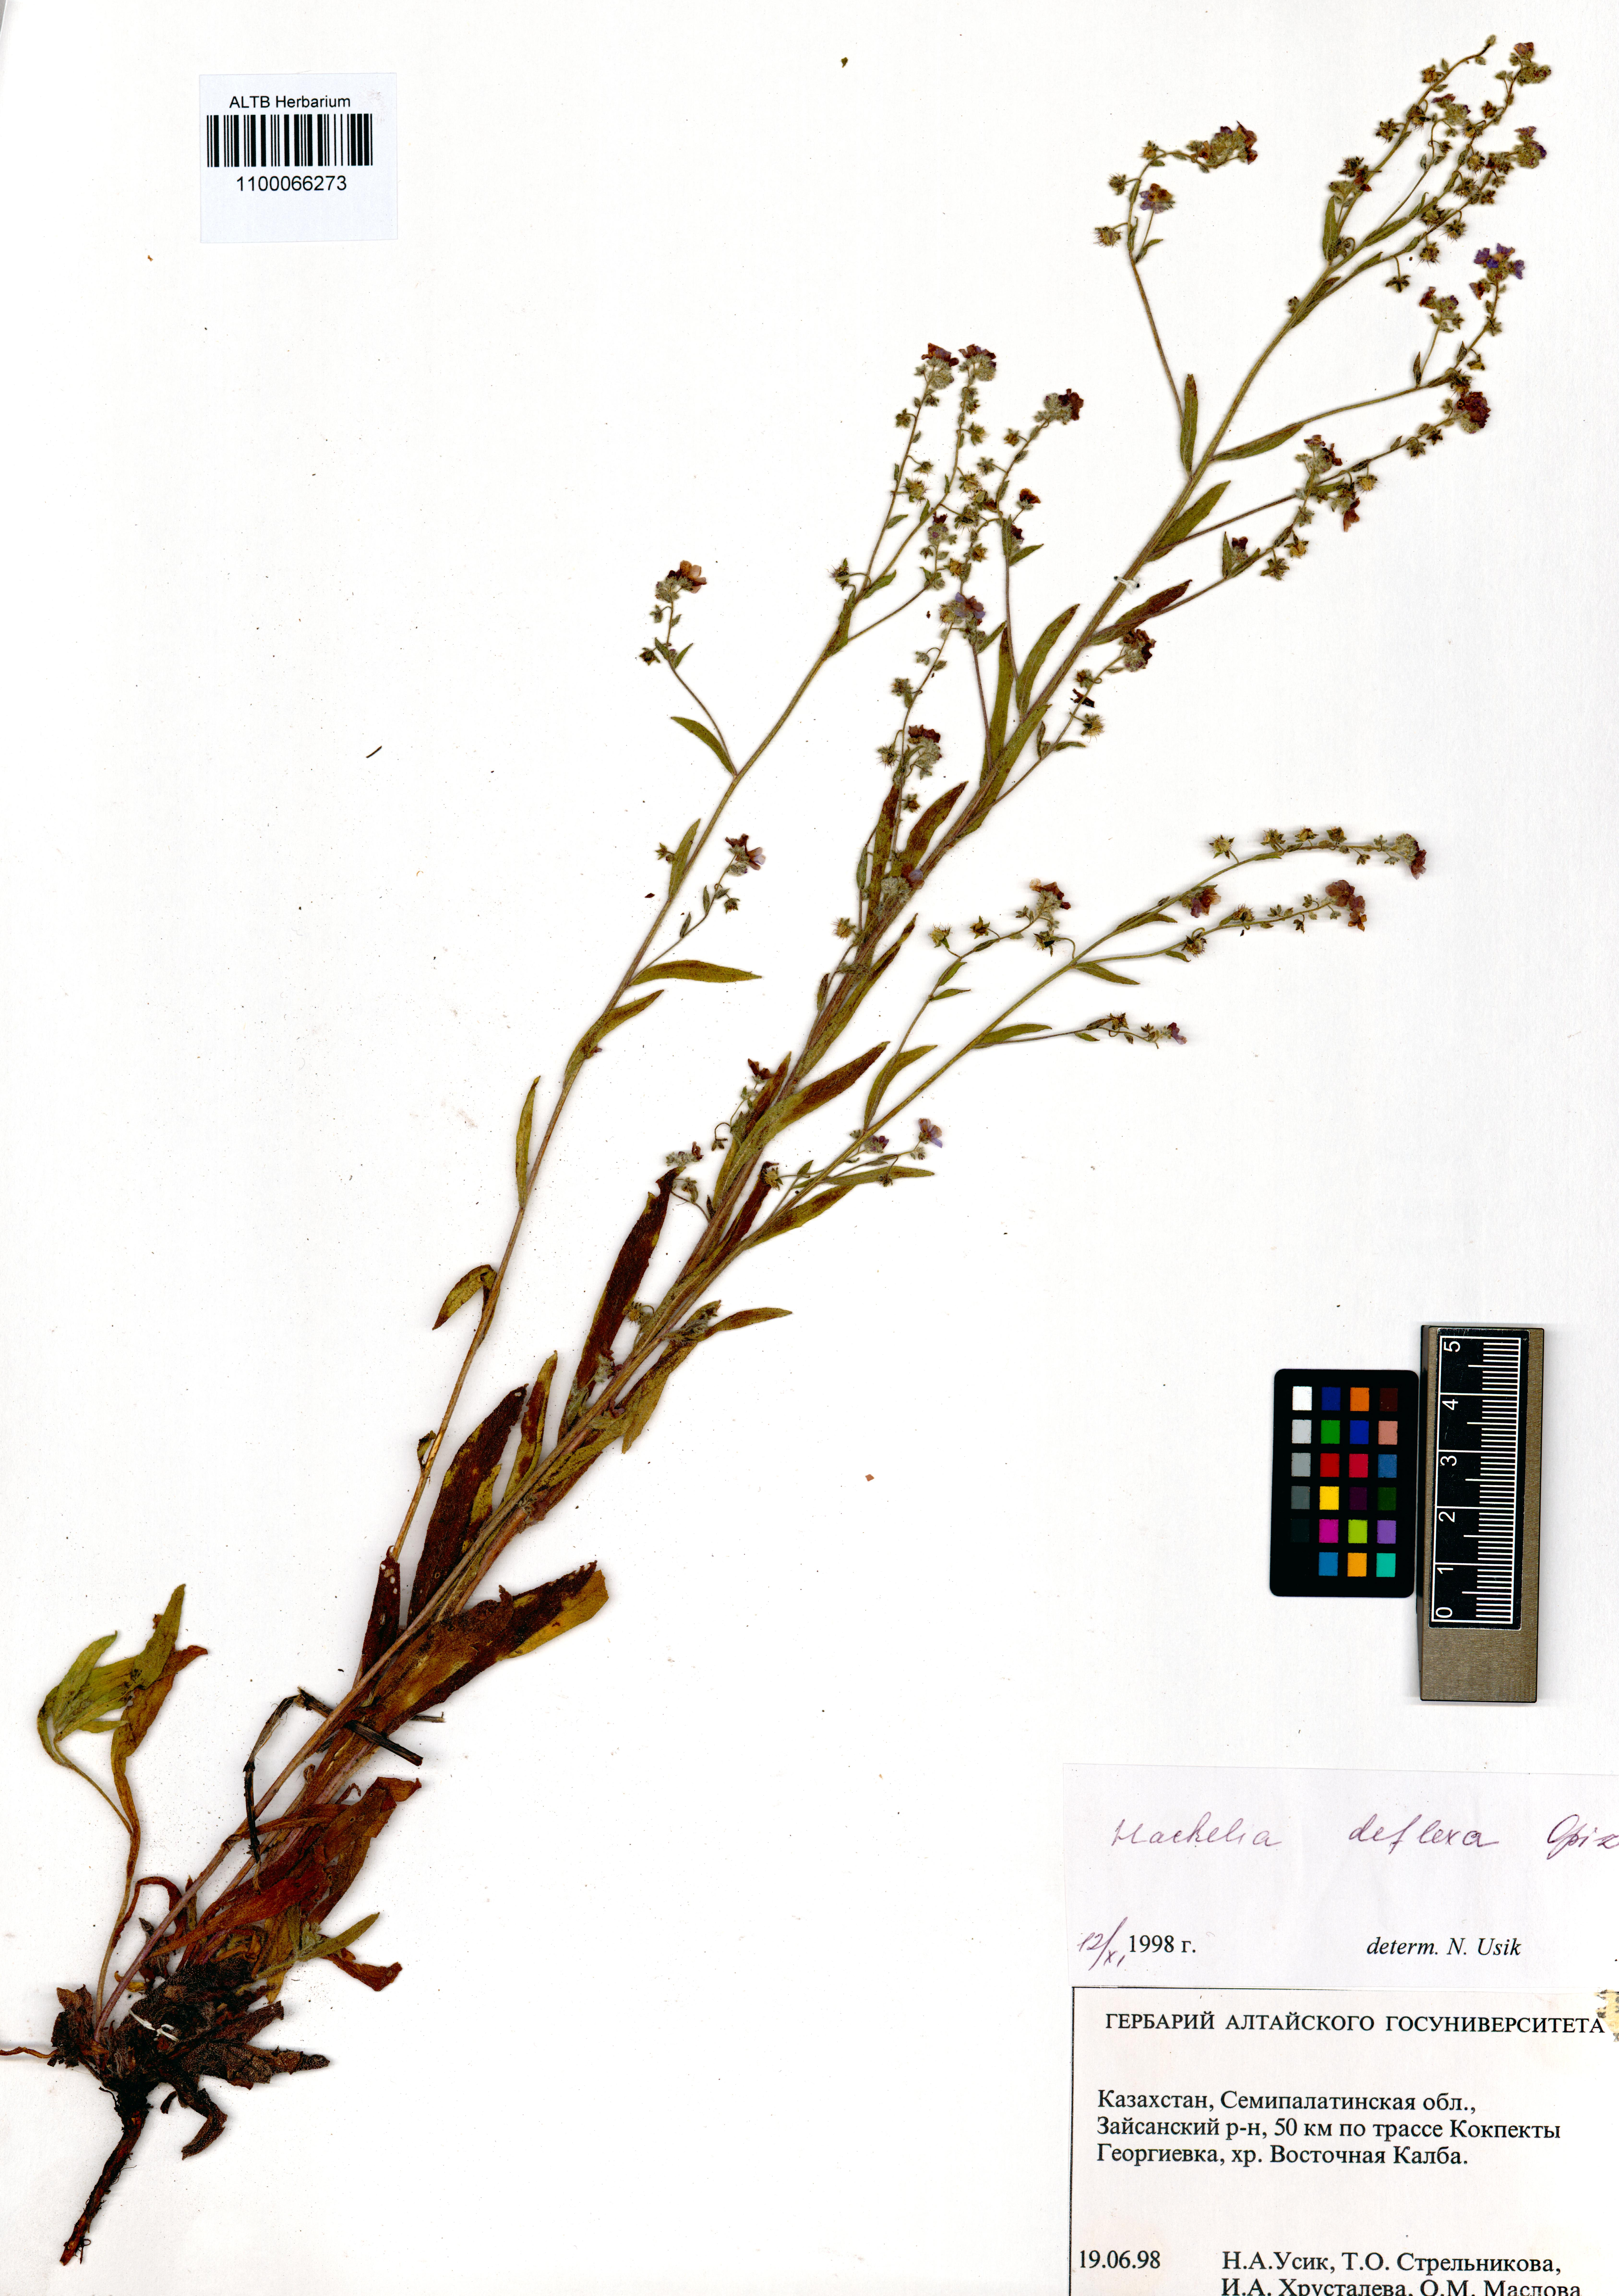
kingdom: Plantae
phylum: Tracheophyta
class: Magnoliopsida
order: Boraginales
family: Boraginaceae
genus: Hackelia
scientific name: Hackelia deflexa
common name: Nodding stickseed
